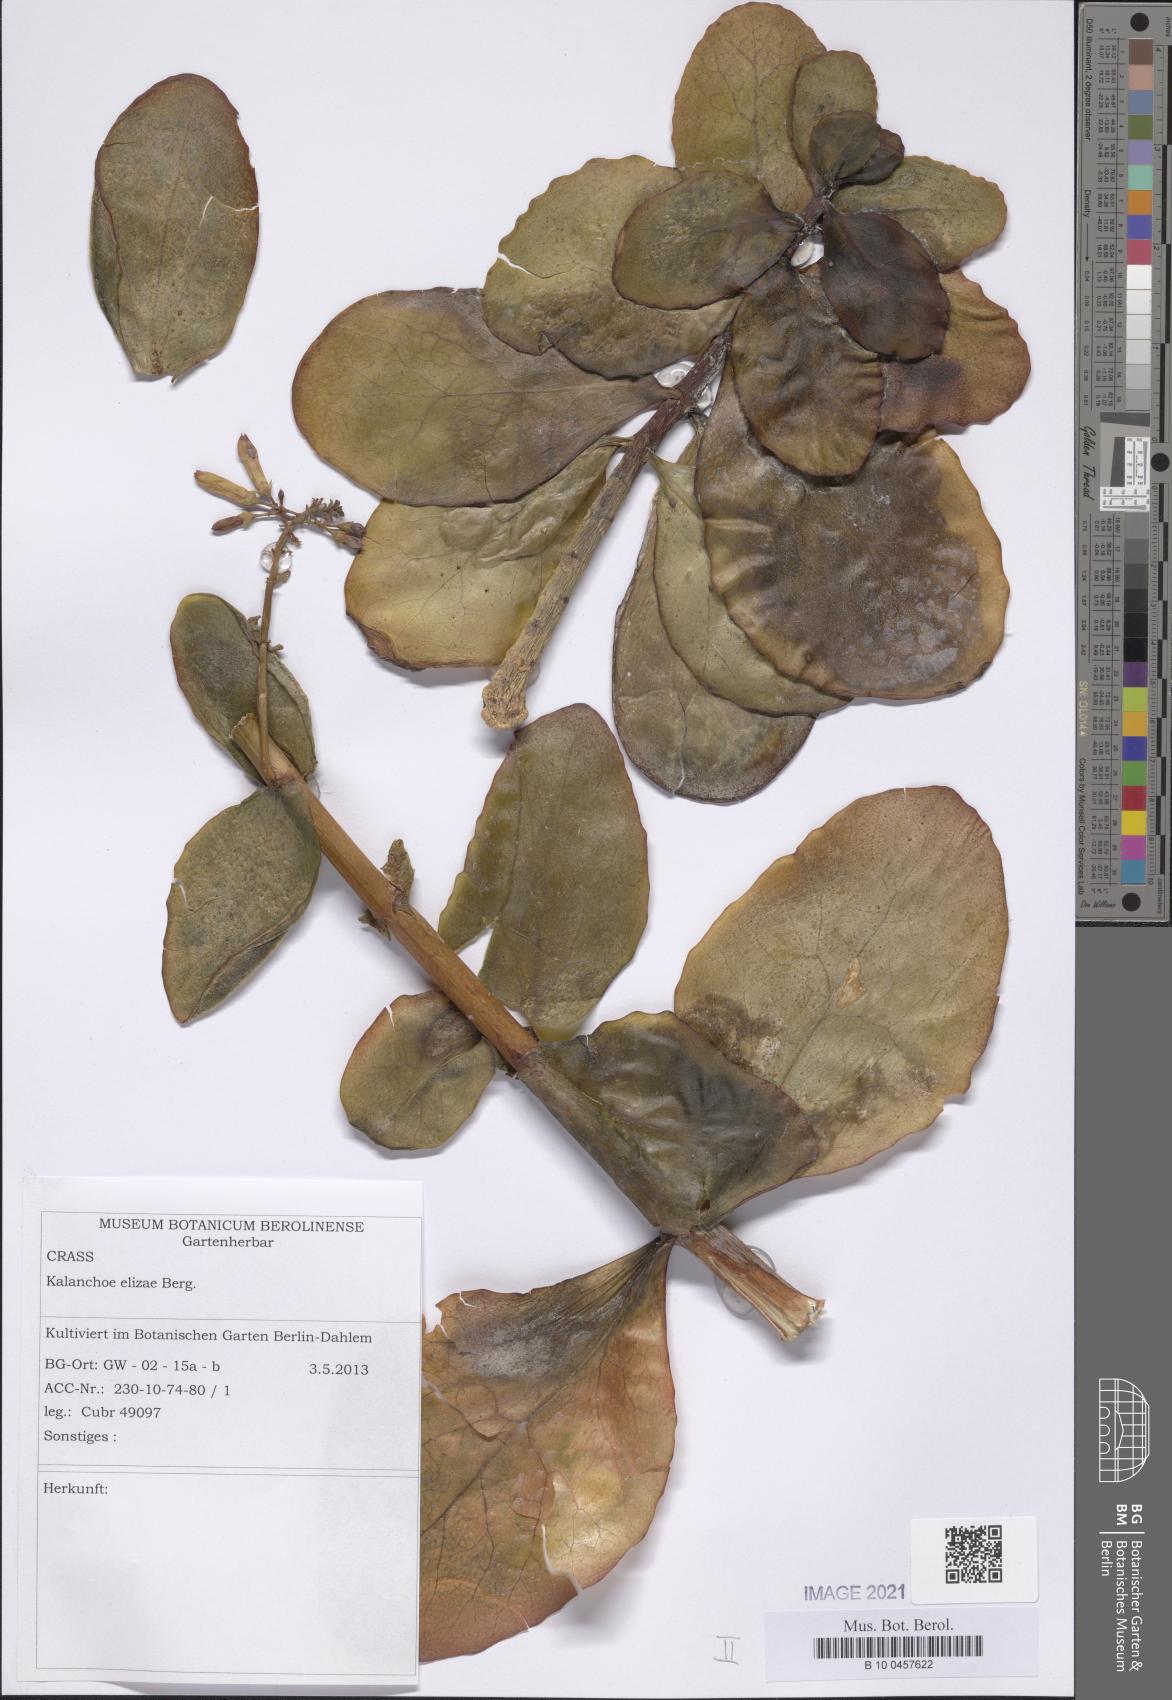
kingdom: Plantae
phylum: Tracheophyta
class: Magnoliopsida
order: Saxifragales
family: Crassulaceae
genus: Kalanchoe
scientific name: Kalanchoe elizae
